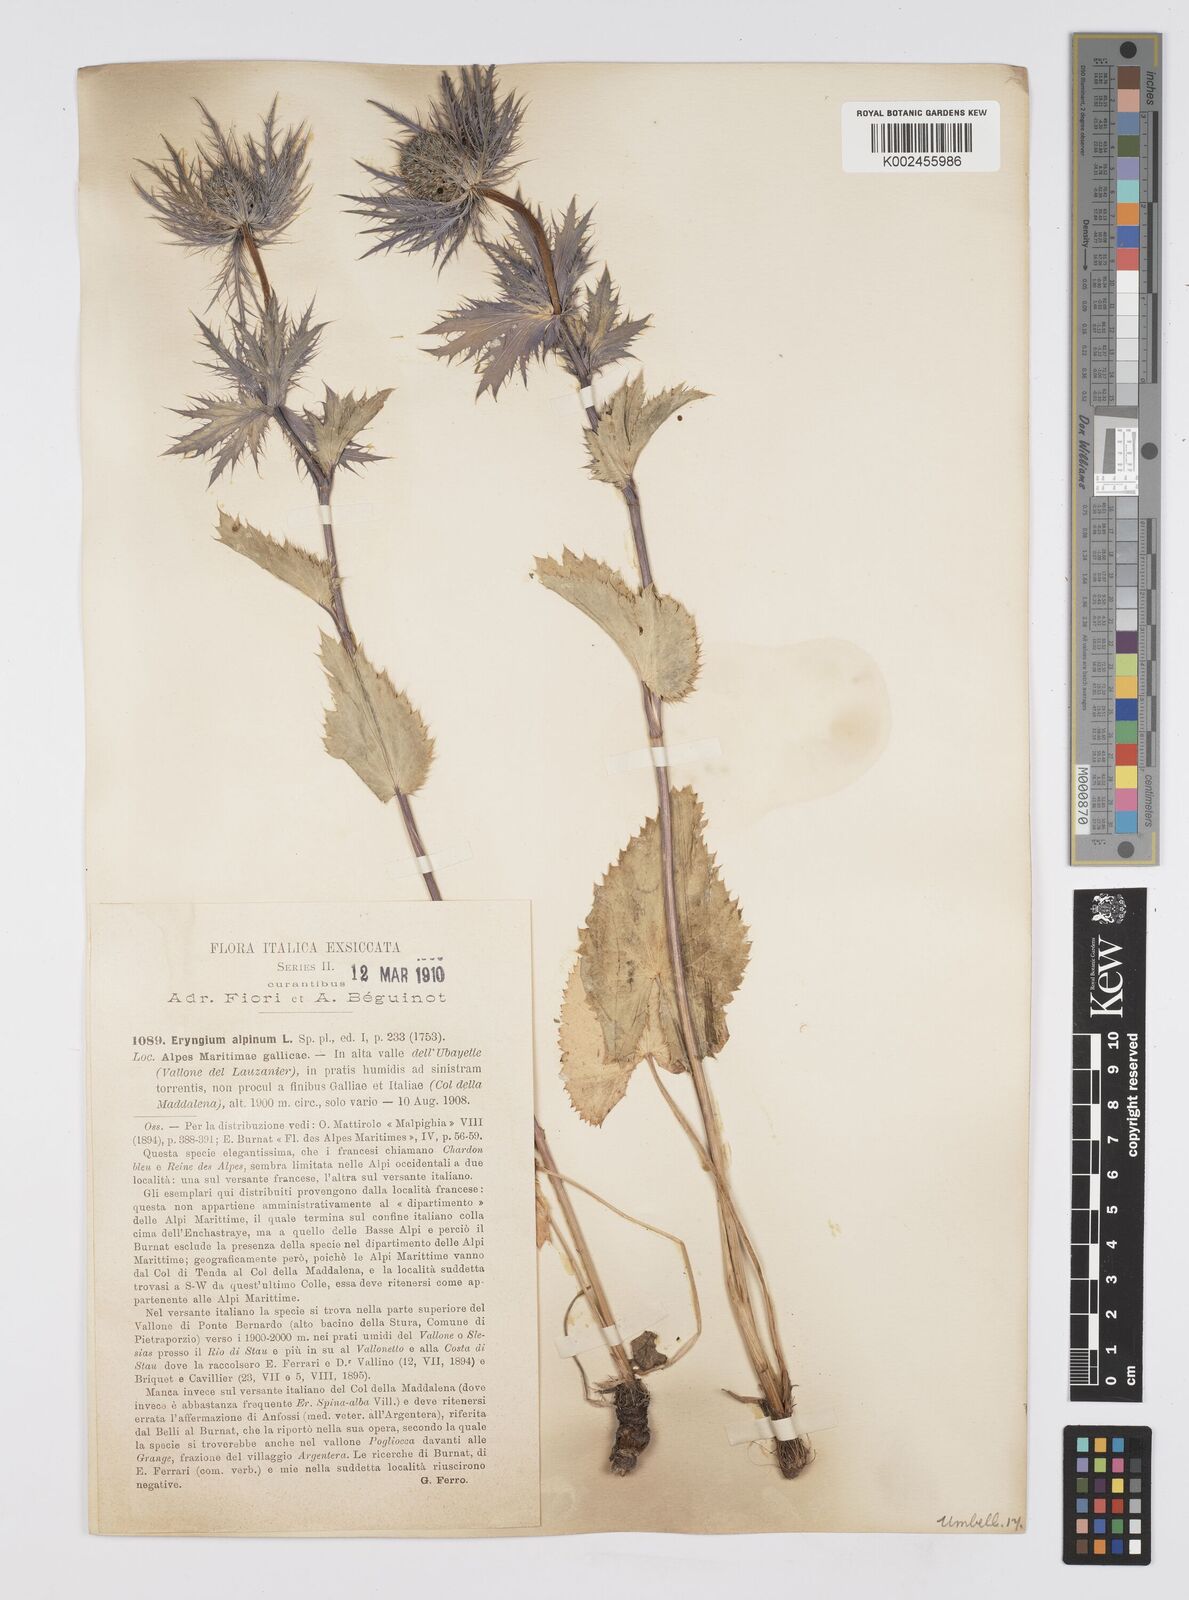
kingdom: Plantae
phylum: Tracheophyta
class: Magnoliopsida
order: Apiales
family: Apiaceae
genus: Eryngium
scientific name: Eryngium alpinum
